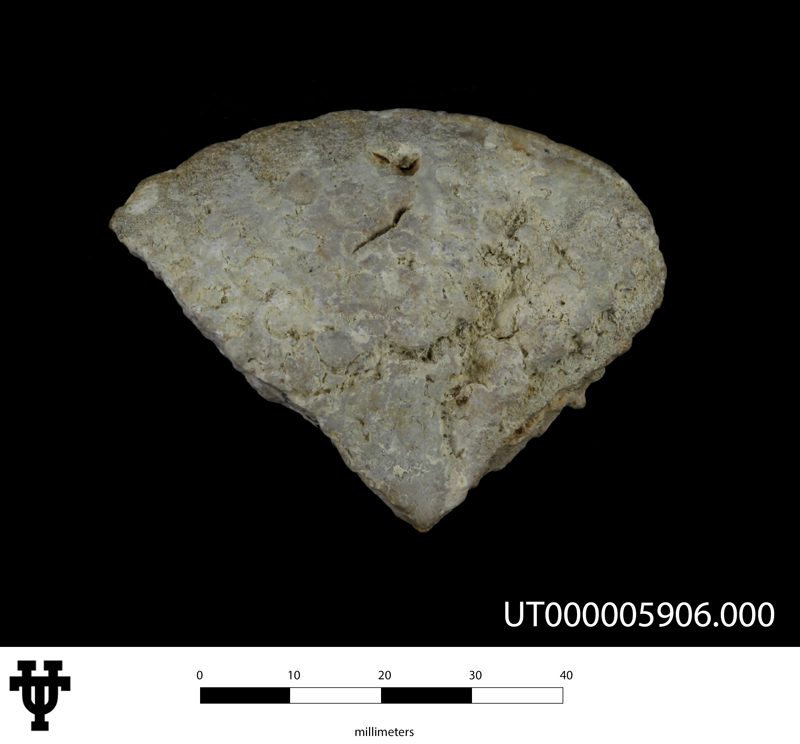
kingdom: Animalia
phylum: Mollusca
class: Cephalopoda
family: Engonoceratidae
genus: Metengonoceras
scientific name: Metengonoceras
